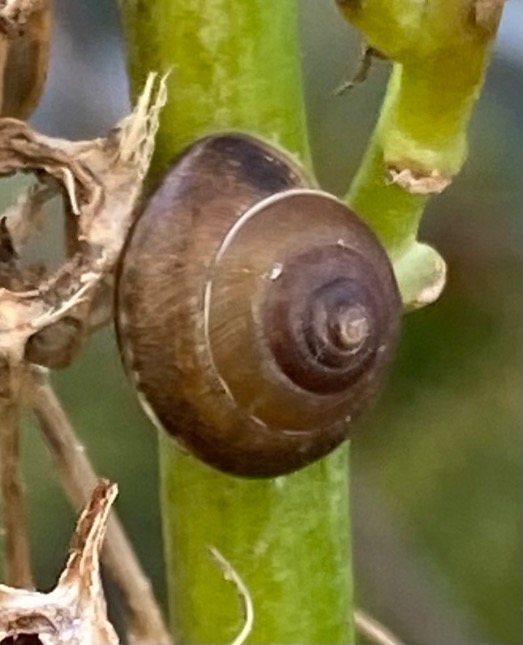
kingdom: Animalia
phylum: Mollusca
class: Gastropoda
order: Stylommatophora
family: Hygromiidae
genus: Hygromia
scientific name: Hygromia cinctella
